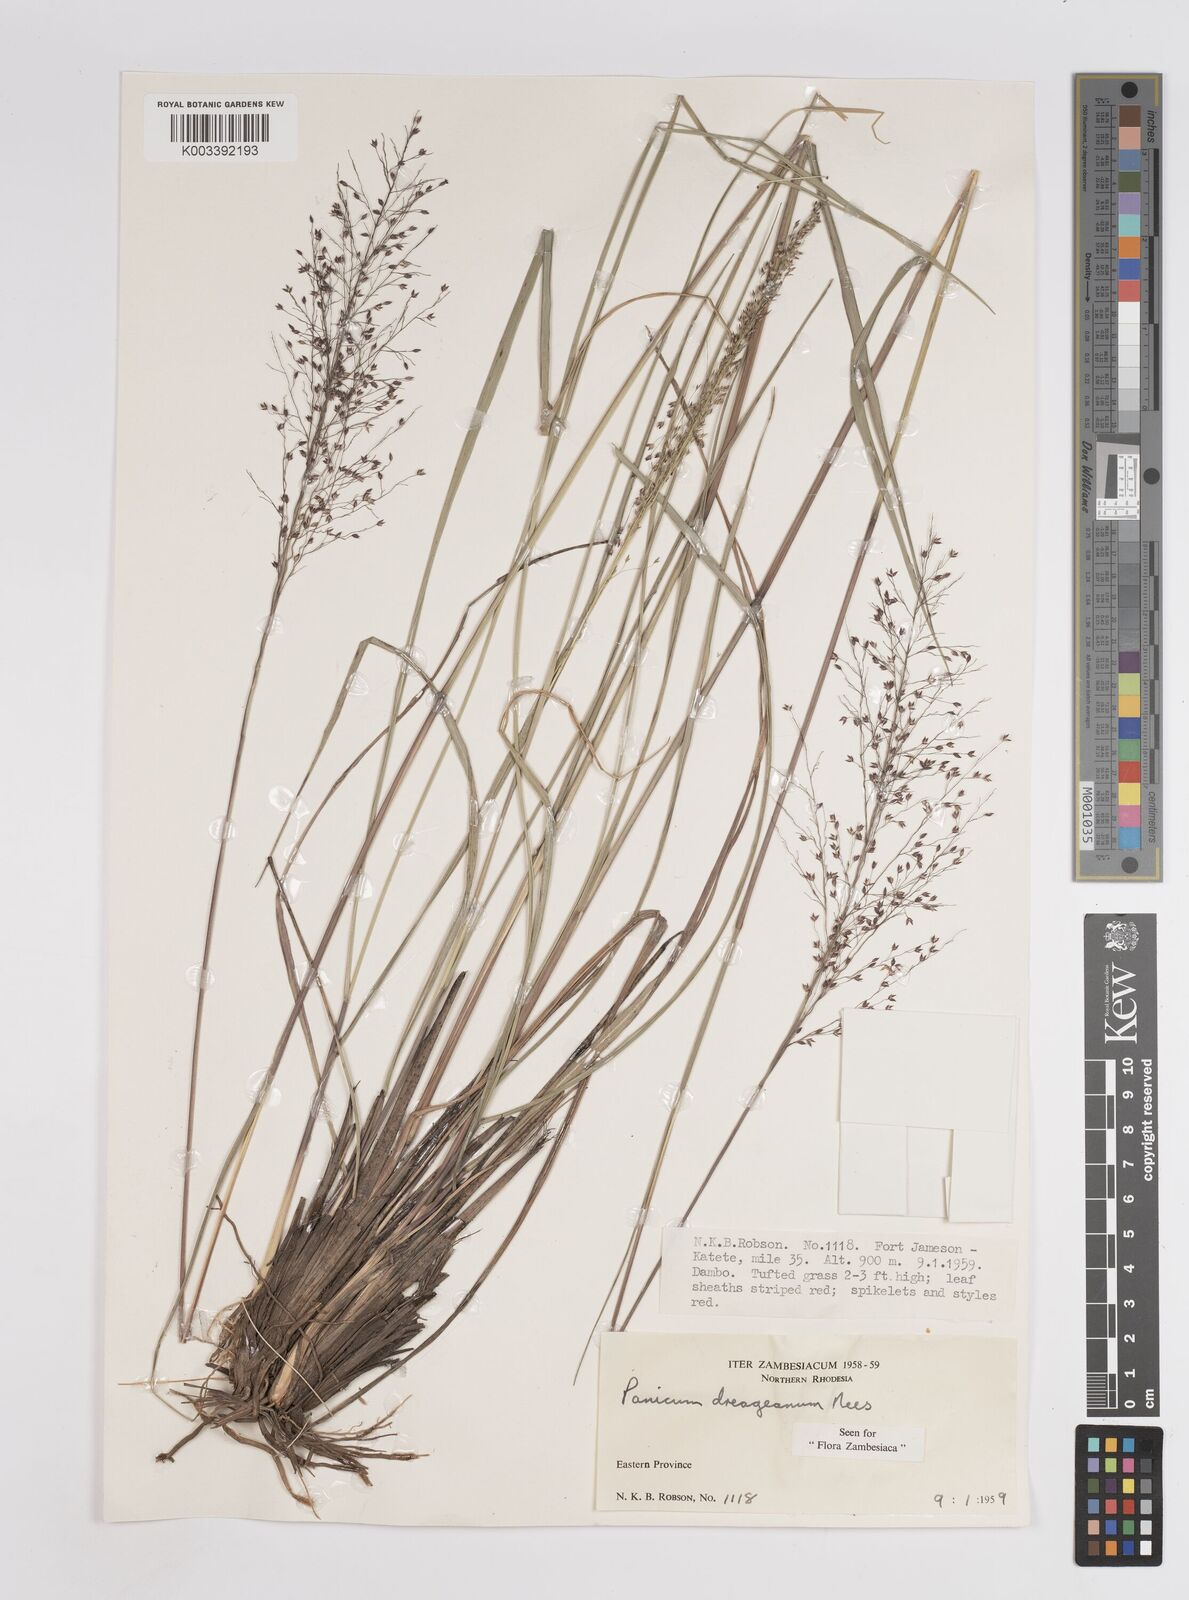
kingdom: Plantae
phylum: Tracheophyta
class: Liliopsida
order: Poales
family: Poaceae
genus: Panicum
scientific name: Panicum dregeanum
